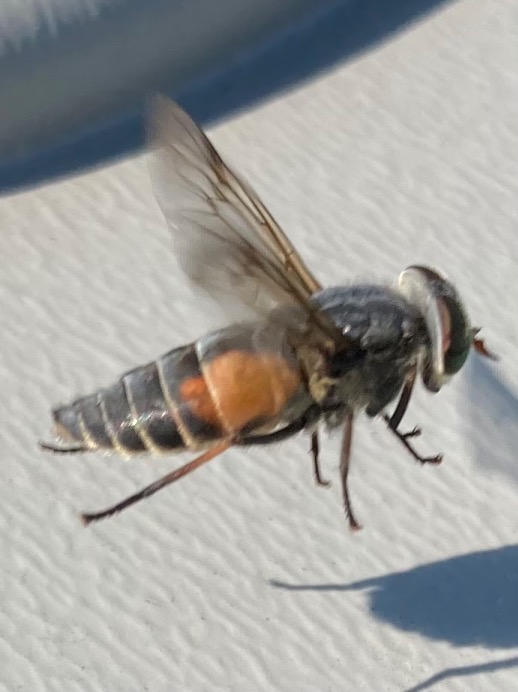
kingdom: Animalia
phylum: Arthropoda
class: Insecta
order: Diptera
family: Tabanidae
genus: Hybomitra
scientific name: Hybomitra bimaculata
